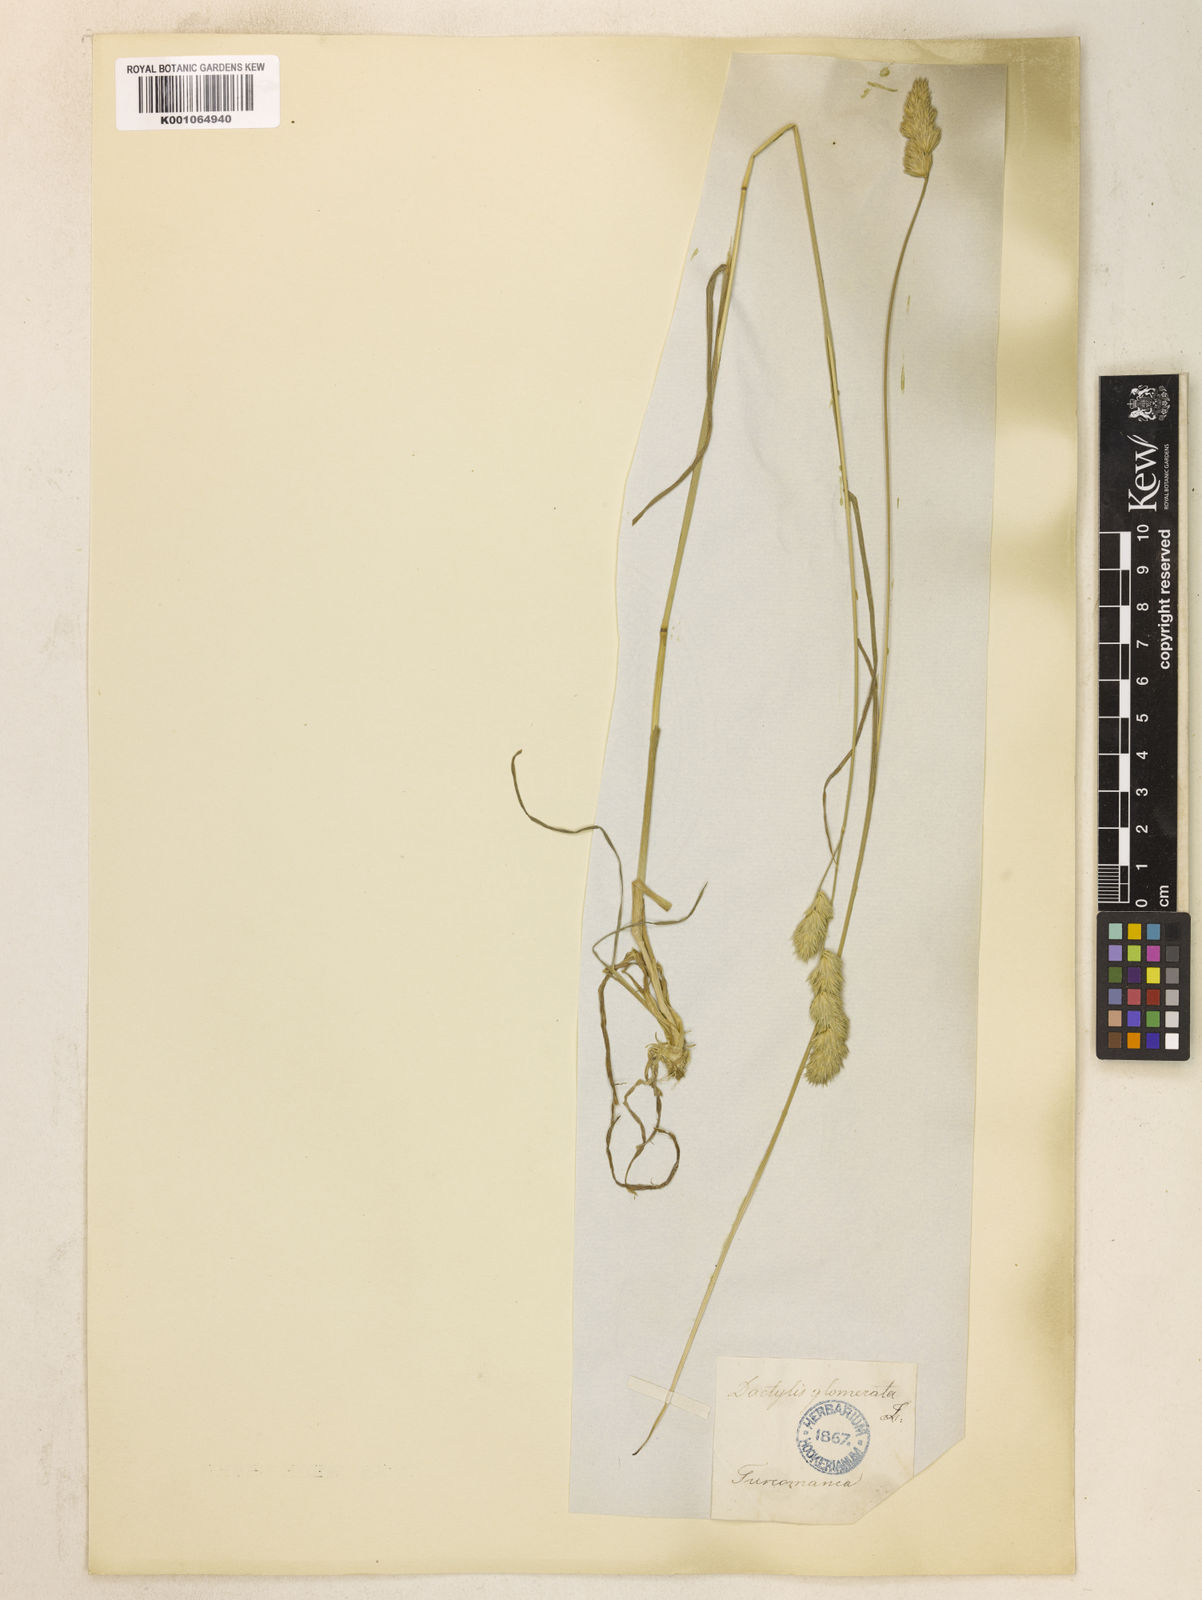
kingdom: Plantae
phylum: Tracheophyta
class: Liliopsida
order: Poales
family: Poaceae
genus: Dactylis
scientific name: Dactylis glomerata
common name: Orchardgrass
